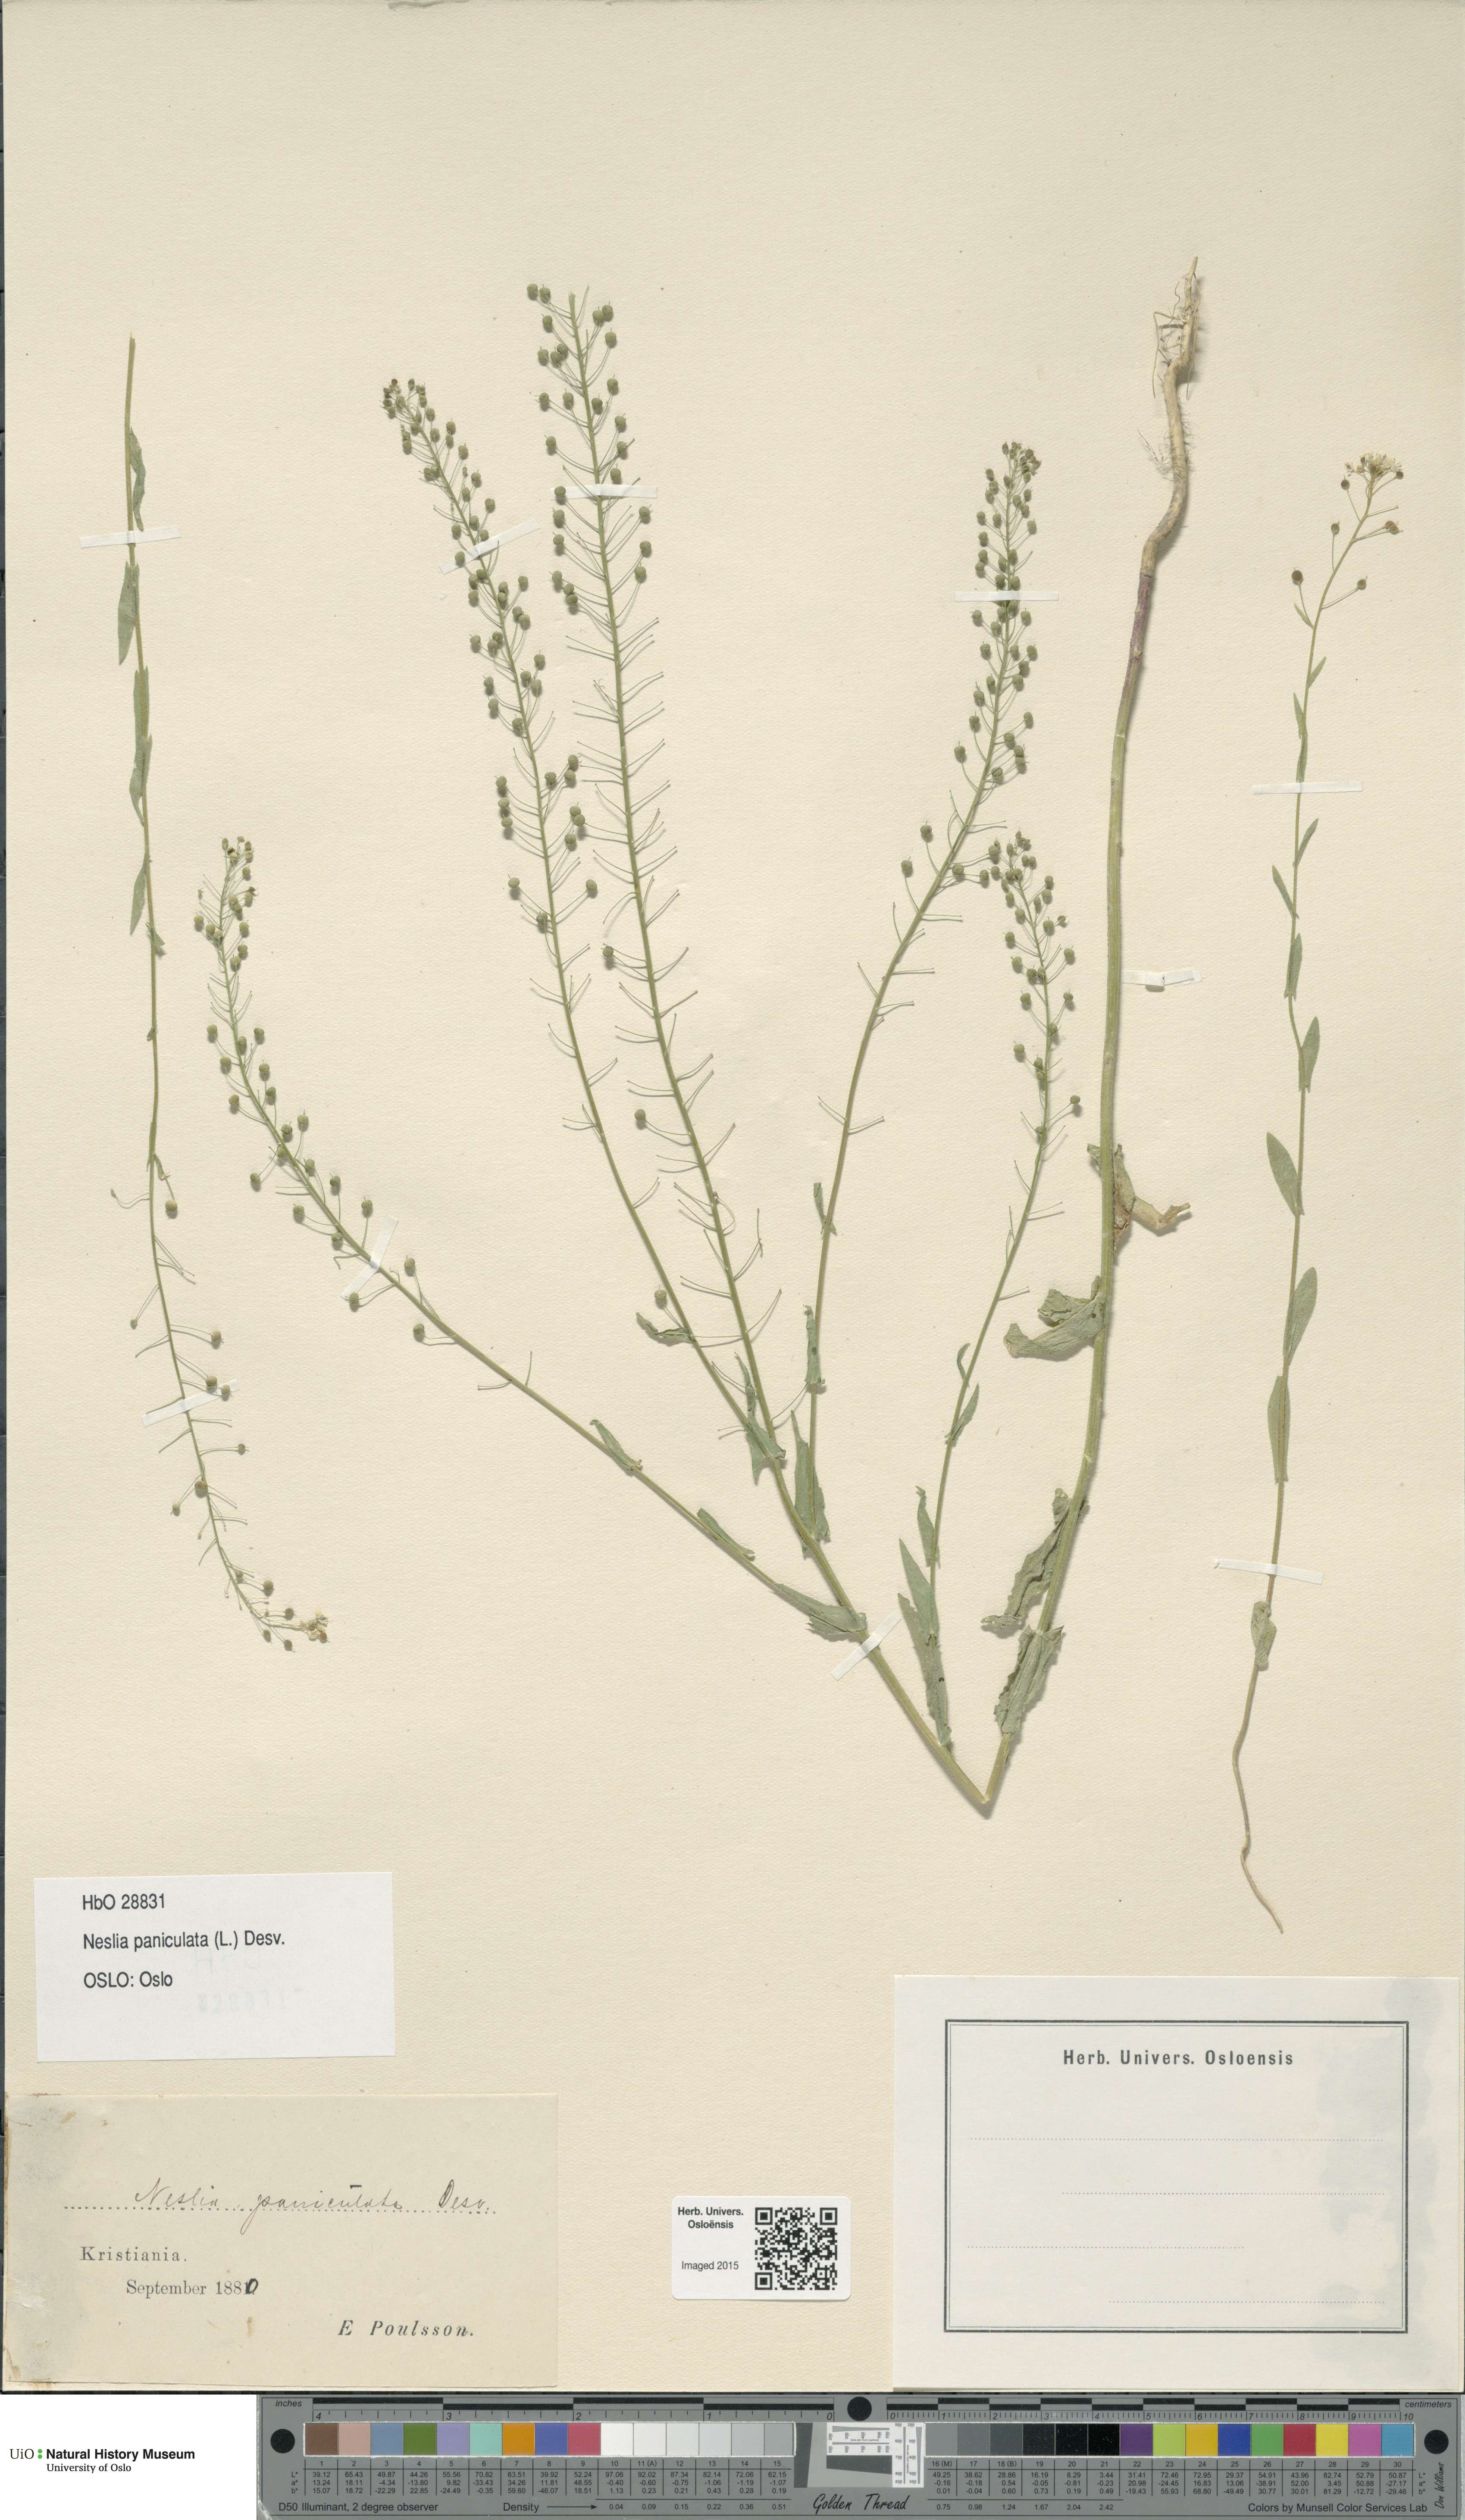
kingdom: Plantae
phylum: Tracheophyta
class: Magnoliopsida
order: Brassicales
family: Brassicaceae
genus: Neslia
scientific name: Neslia paniculata
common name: Ball mustard
